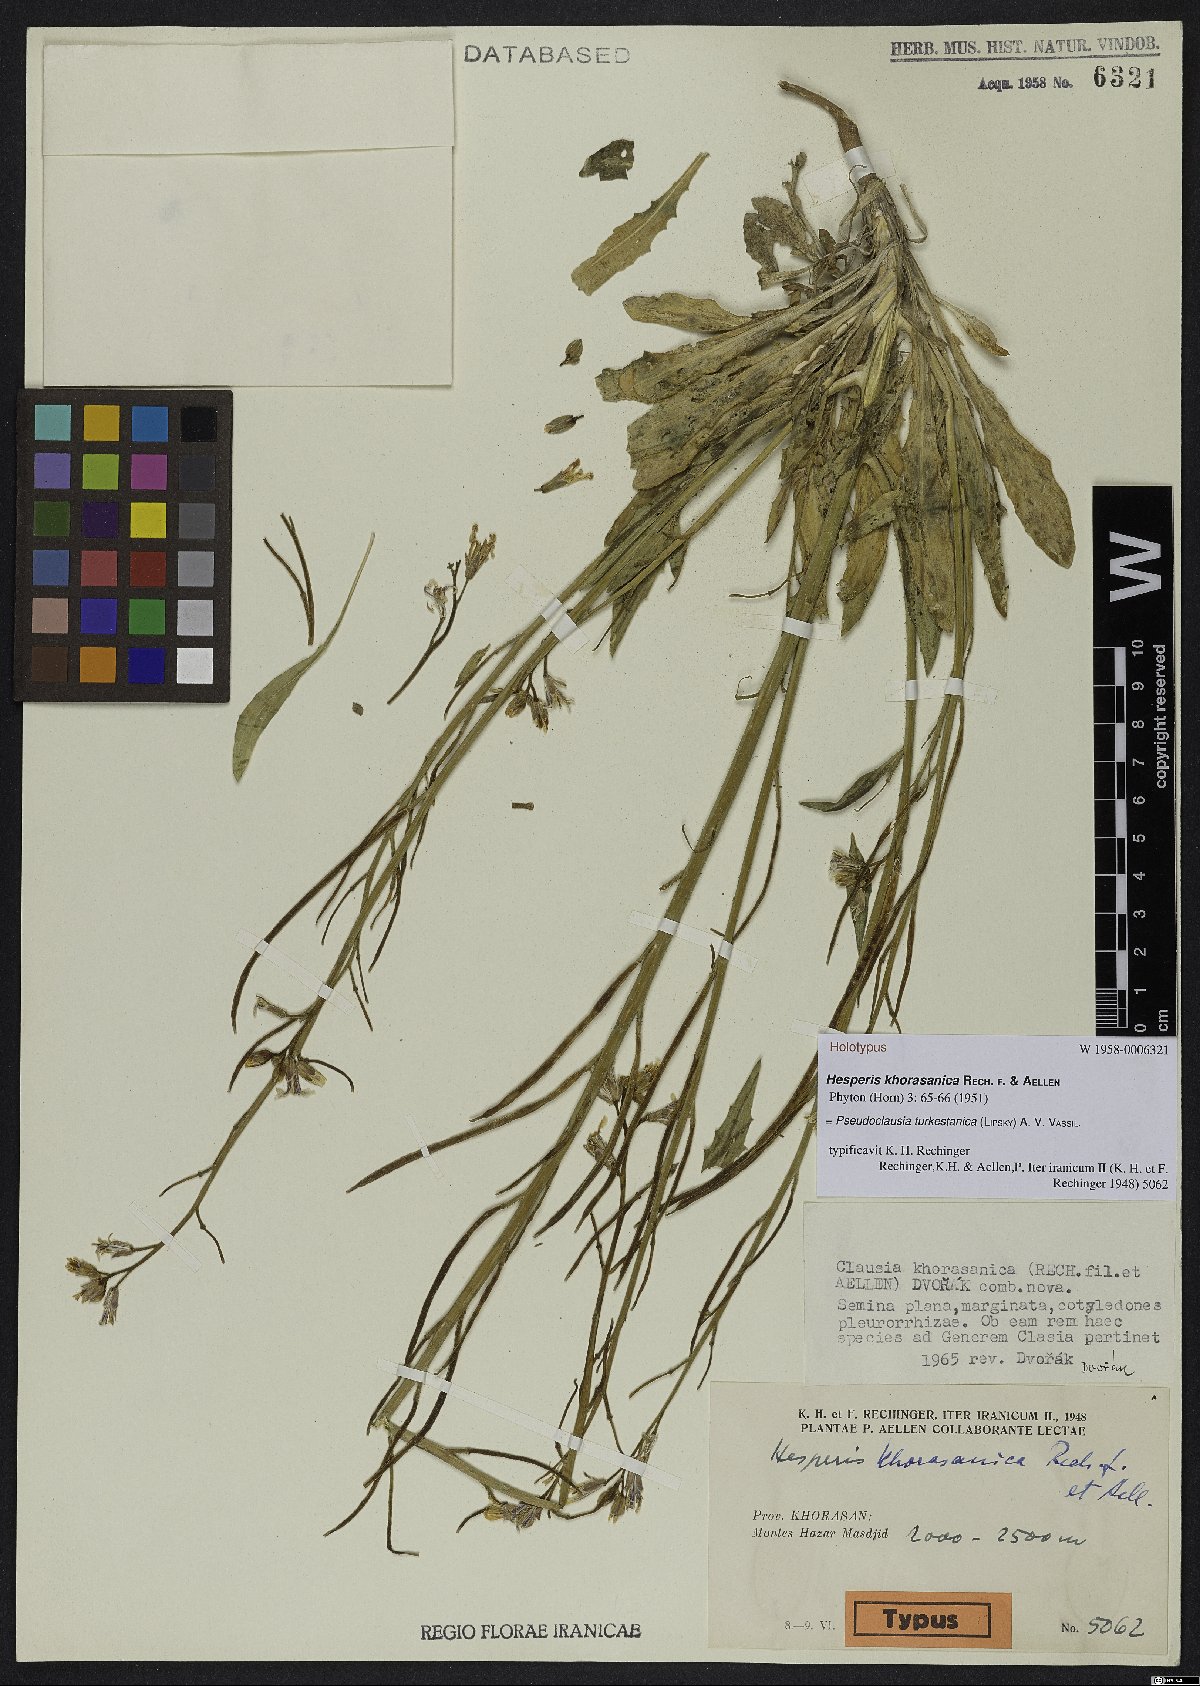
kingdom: Plantae
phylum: Tracheophyta
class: Magnoliopsida
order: Brassicales
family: Brassicaceae
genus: Parrya
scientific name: Parrya khorasanica
